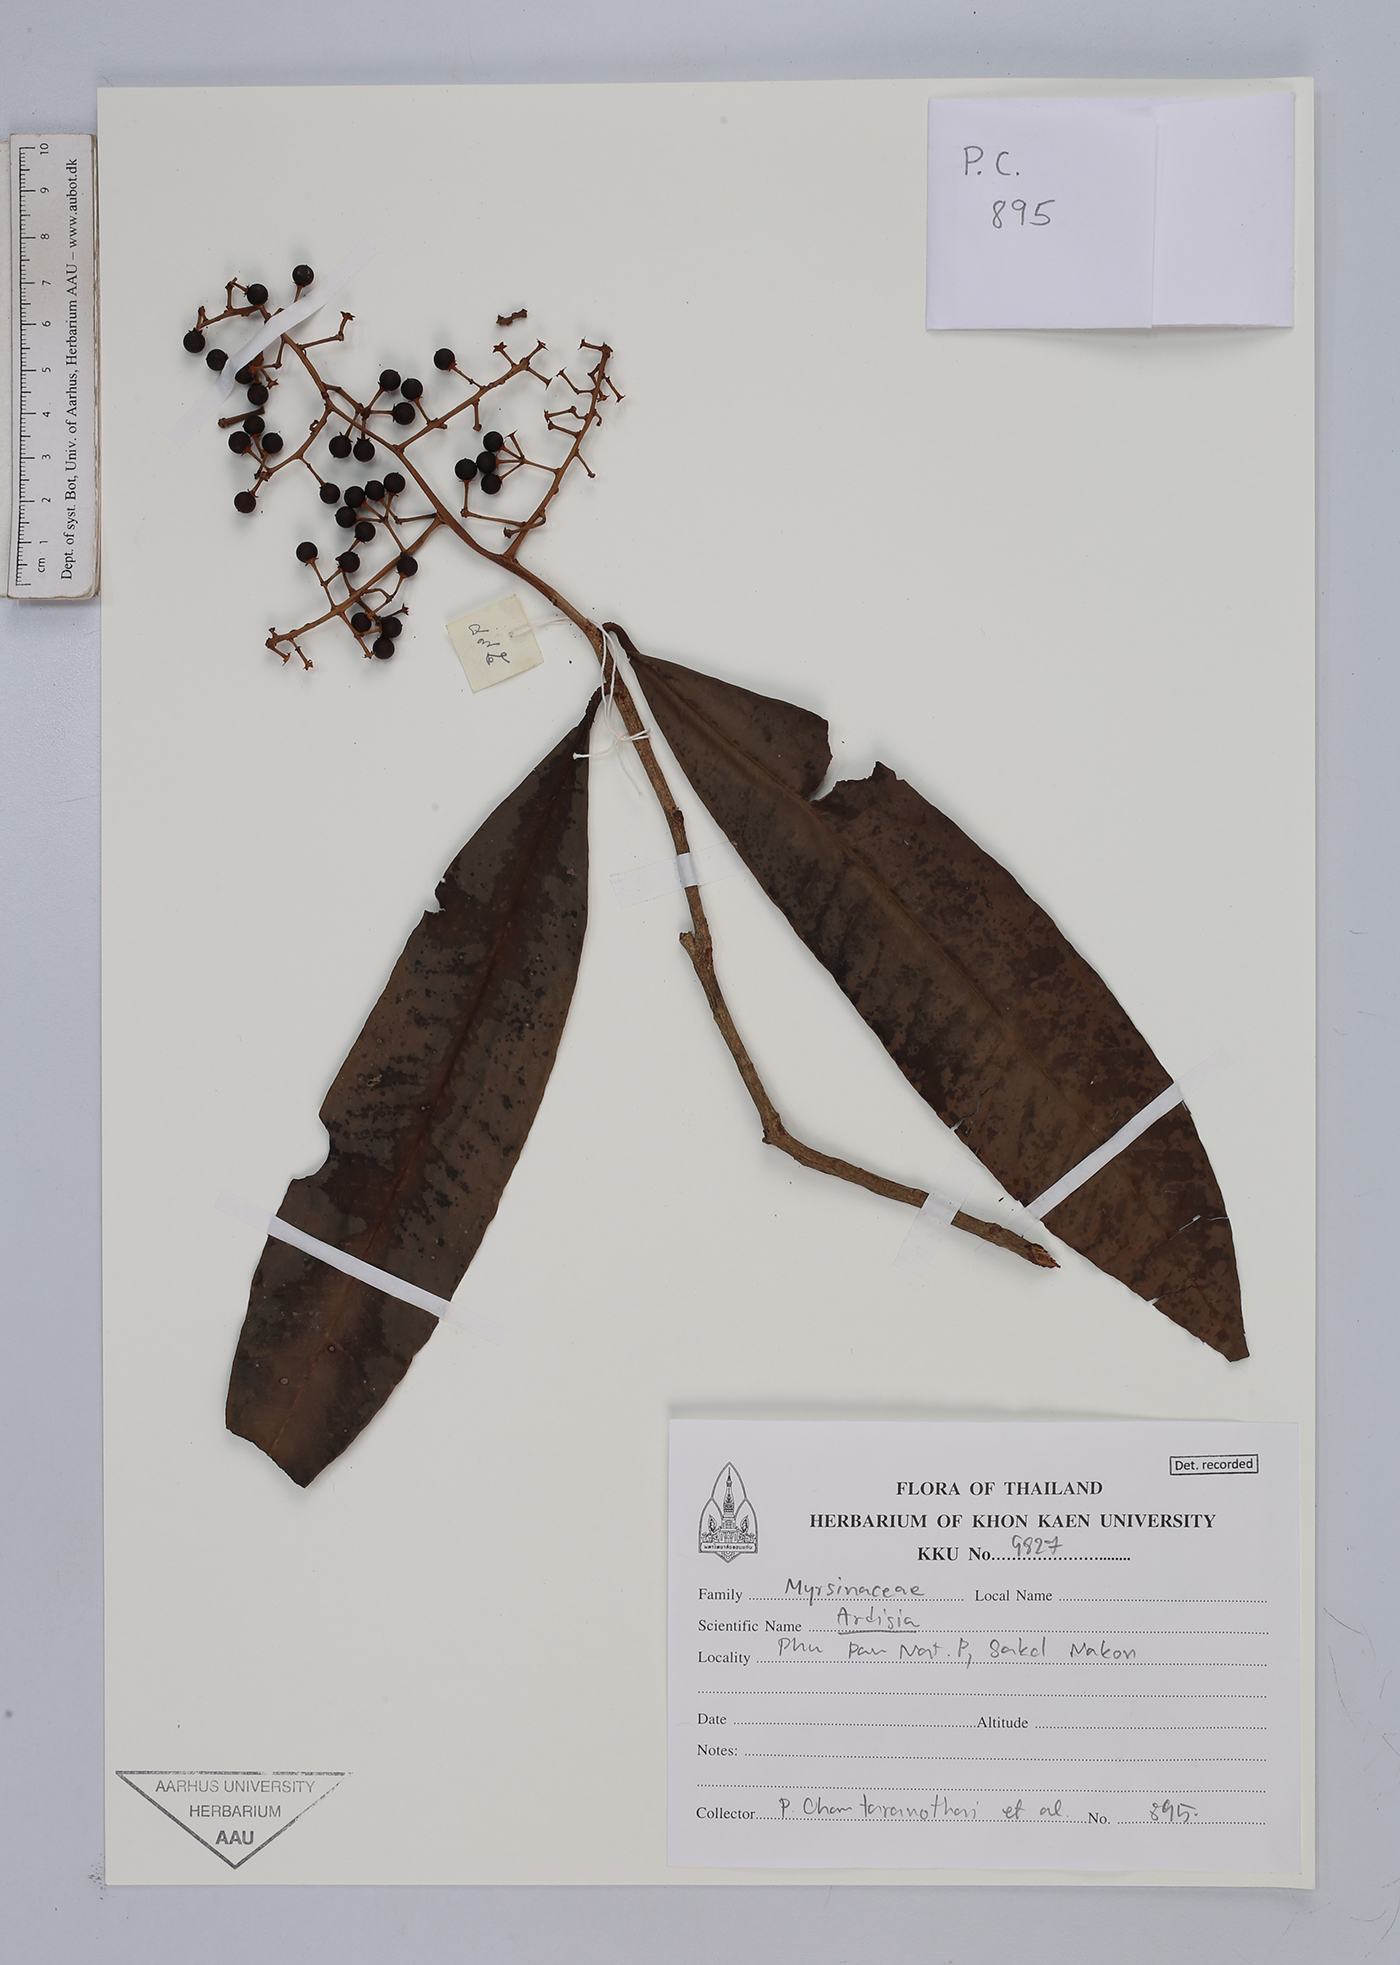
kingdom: Plantae
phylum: Tracheophyta
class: Magnoliopsida
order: Ericales
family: Primulaceae
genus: Ardisia
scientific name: Ardisia
